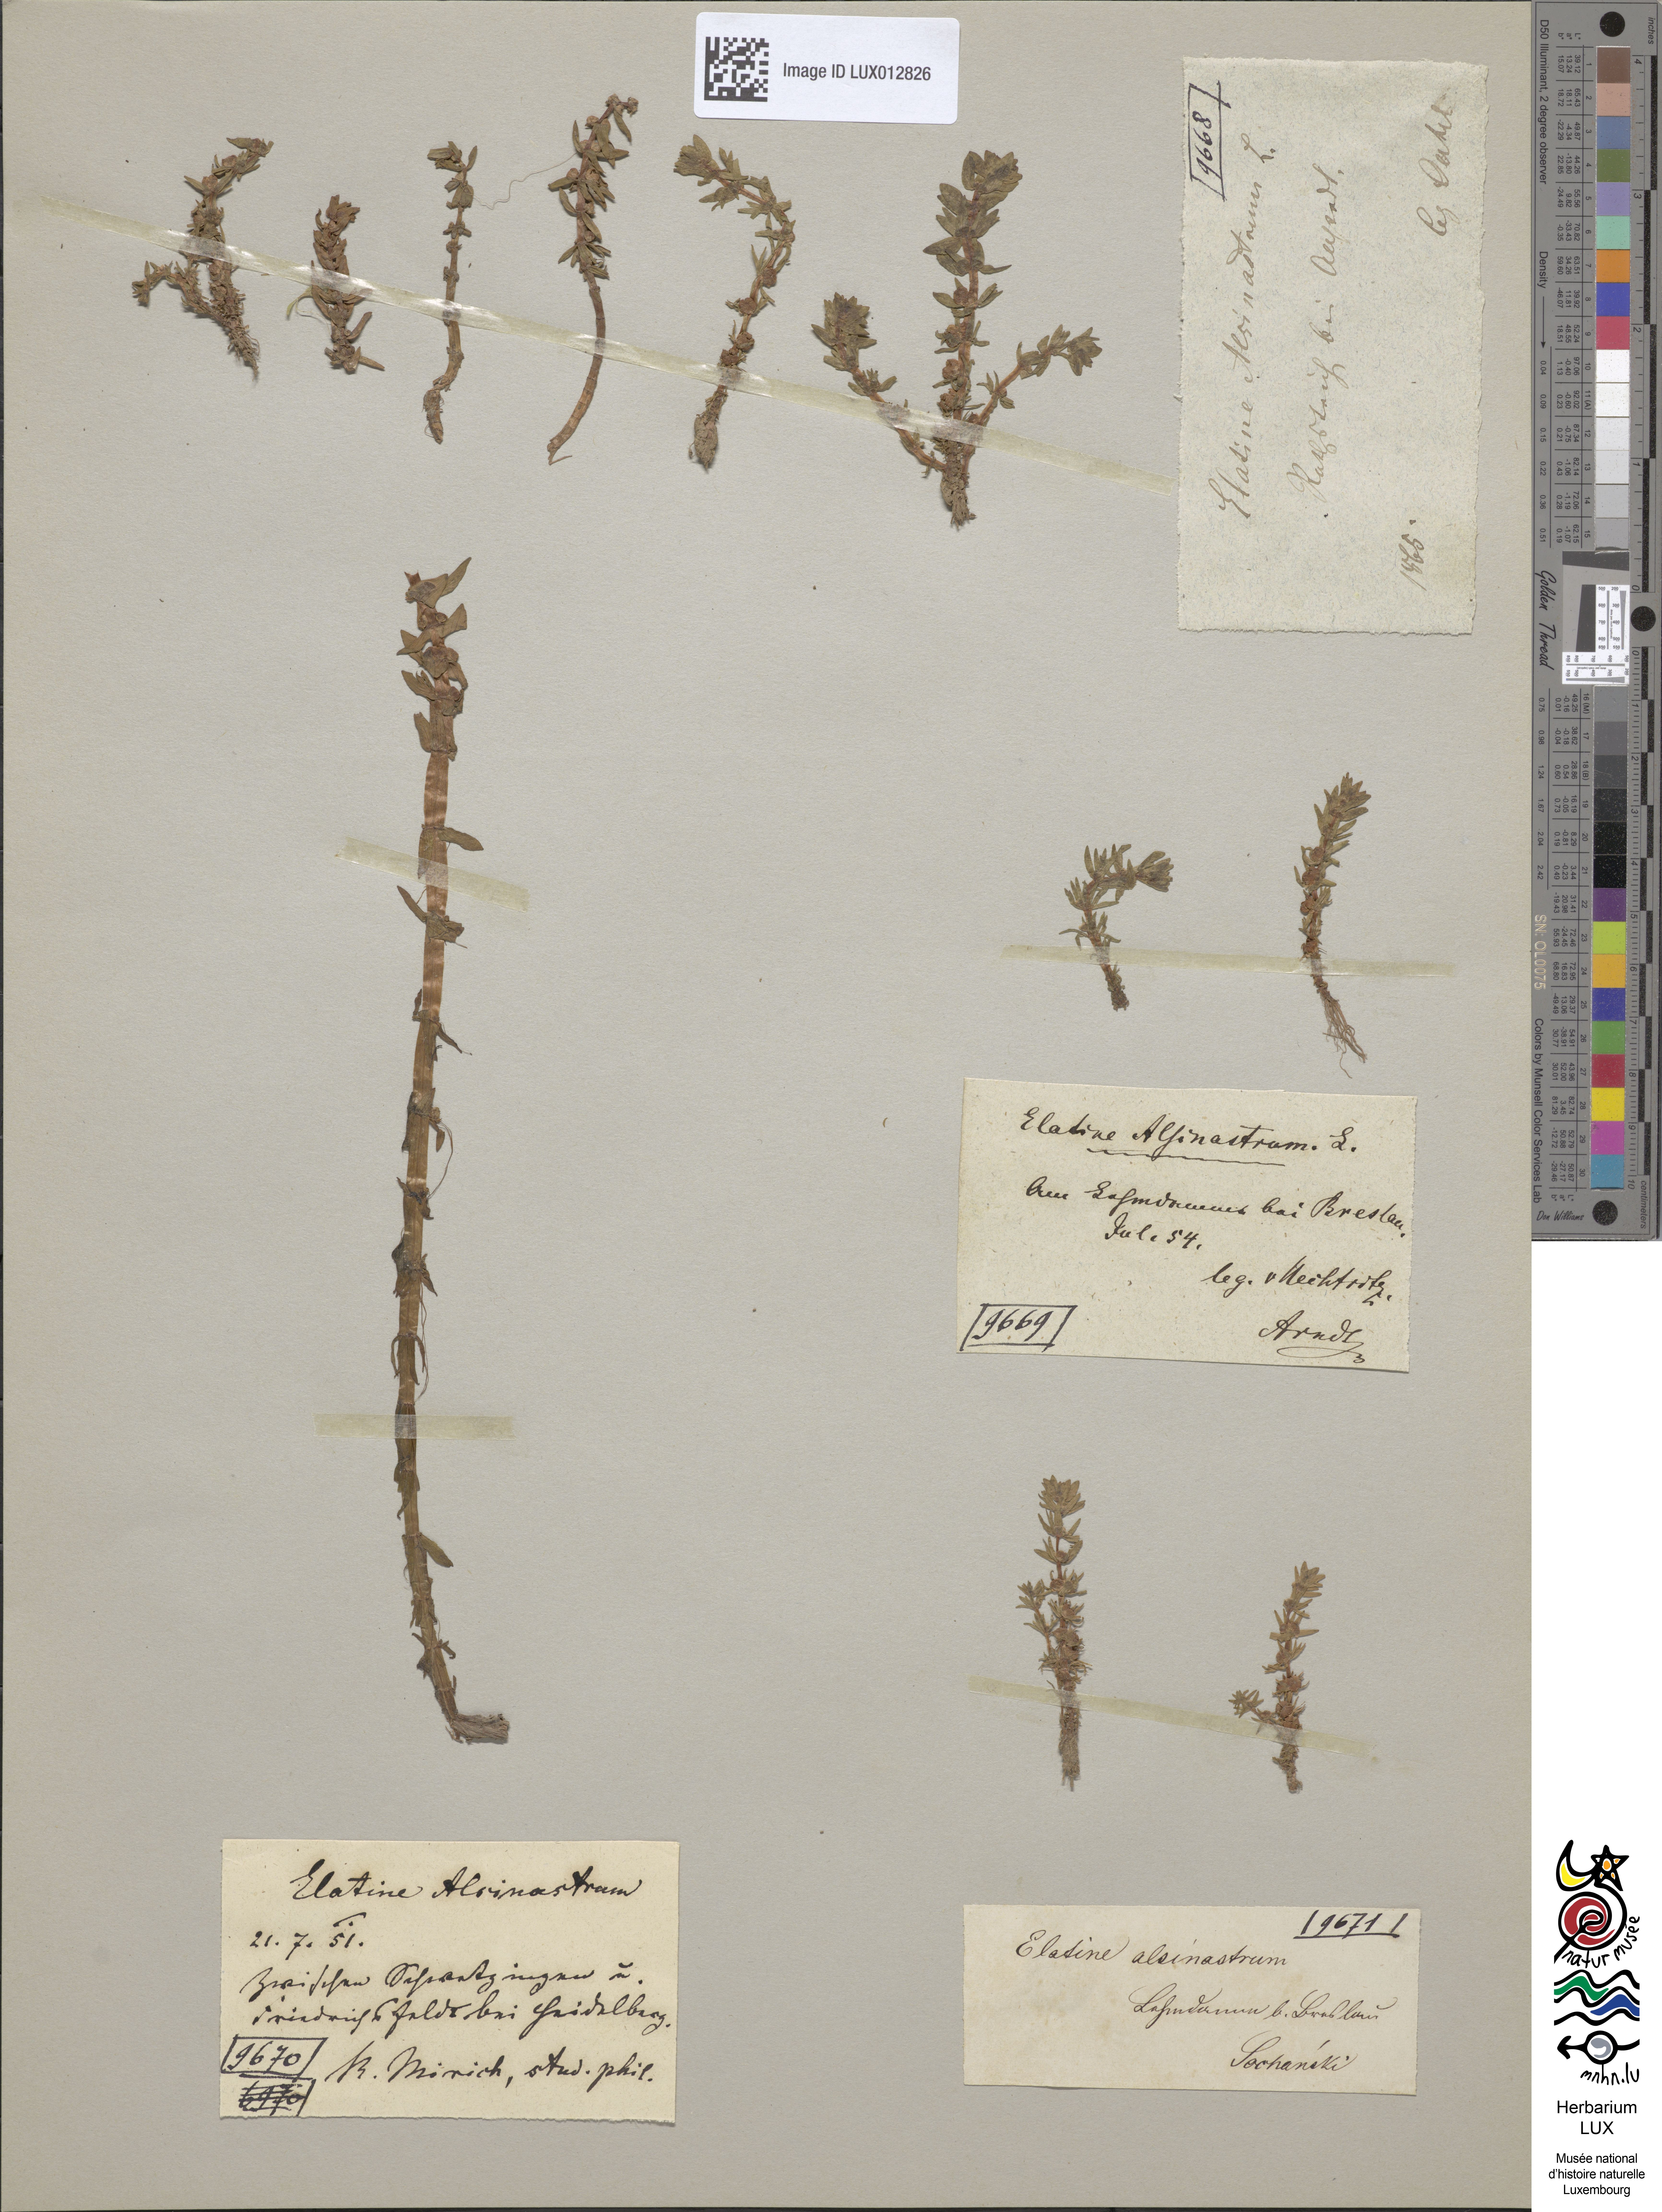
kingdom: Plantae
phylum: Tracheophyta
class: Magnoliopsida
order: Malpighiales
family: Elatinaceae
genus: Elatine
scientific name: Elatine alsinastrum
